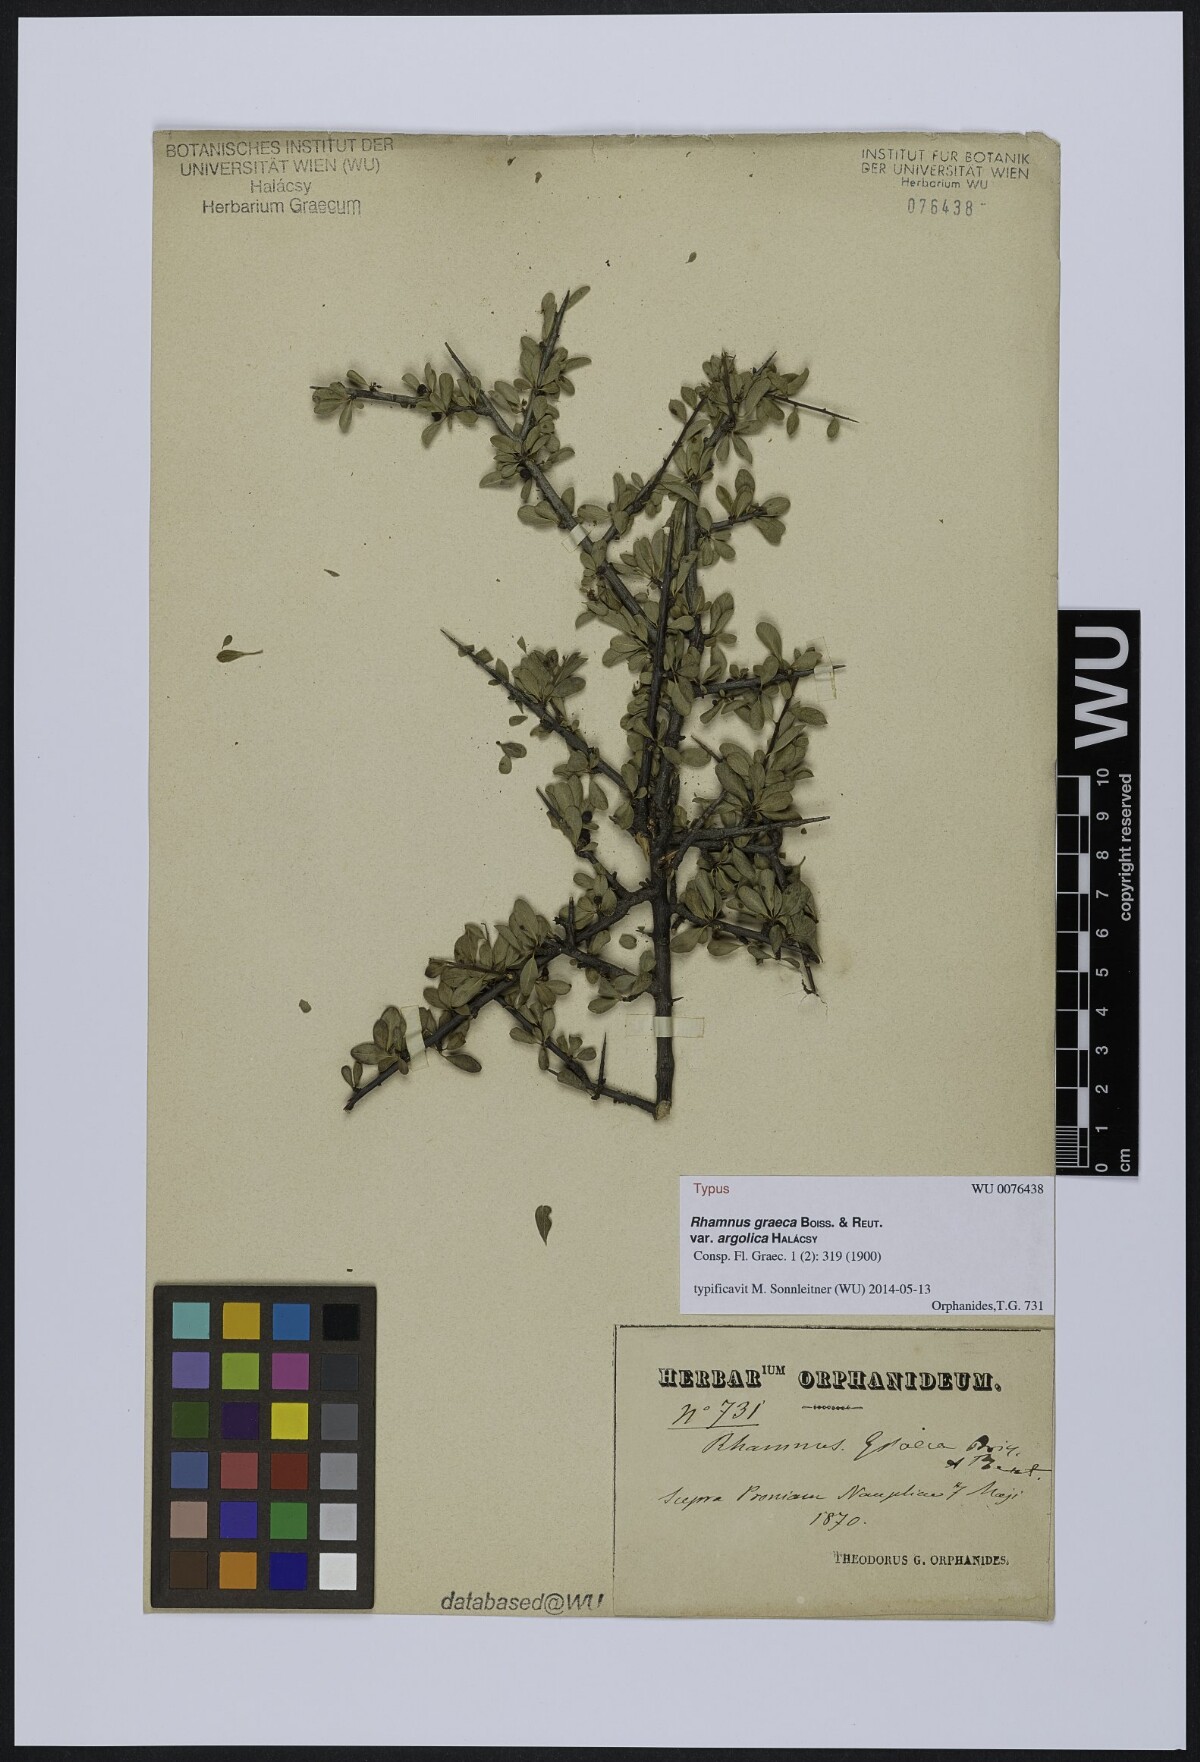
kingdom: Plantae
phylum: Tracheophyta
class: Magnoliopsida
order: Rosales
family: Rhamnaceae
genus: Rhamnus
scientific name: Rhamnus
